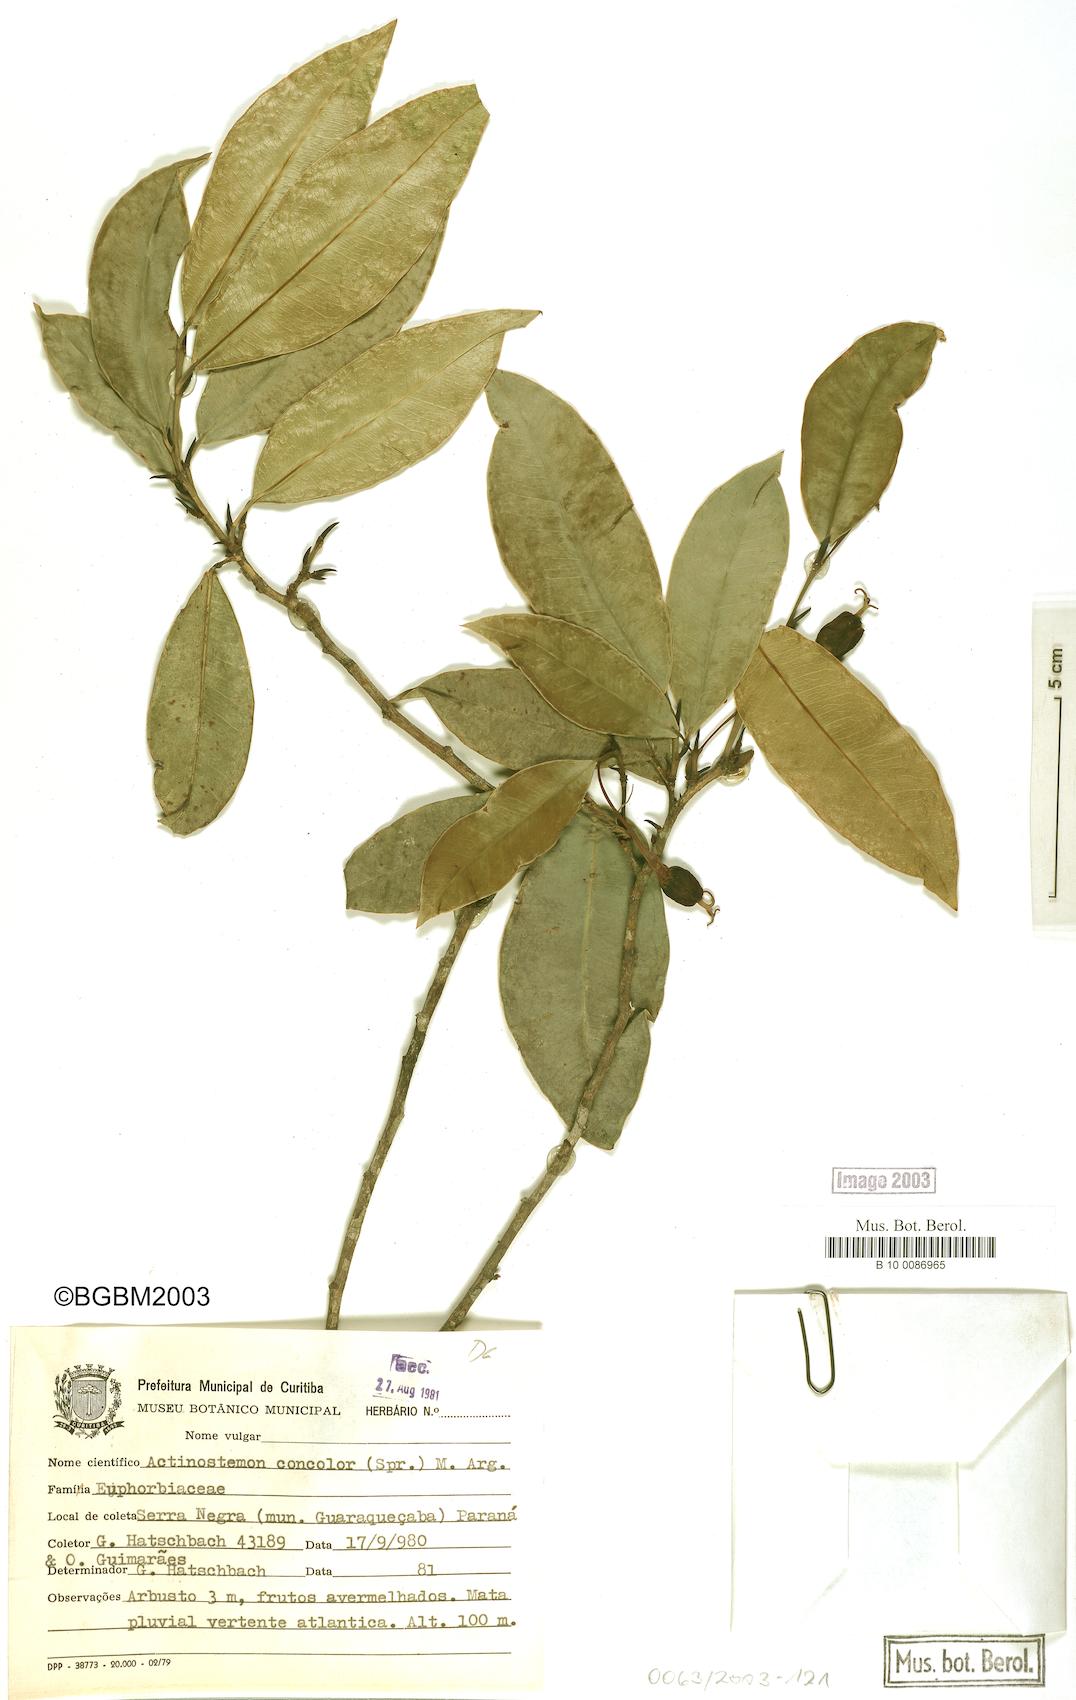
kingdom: Plantae
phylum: Tracheophyta
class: Magnoliopsida
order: Malpighiales
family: Euphorbiaceae
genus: Actinostemon
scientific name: Actinostemon concolor
